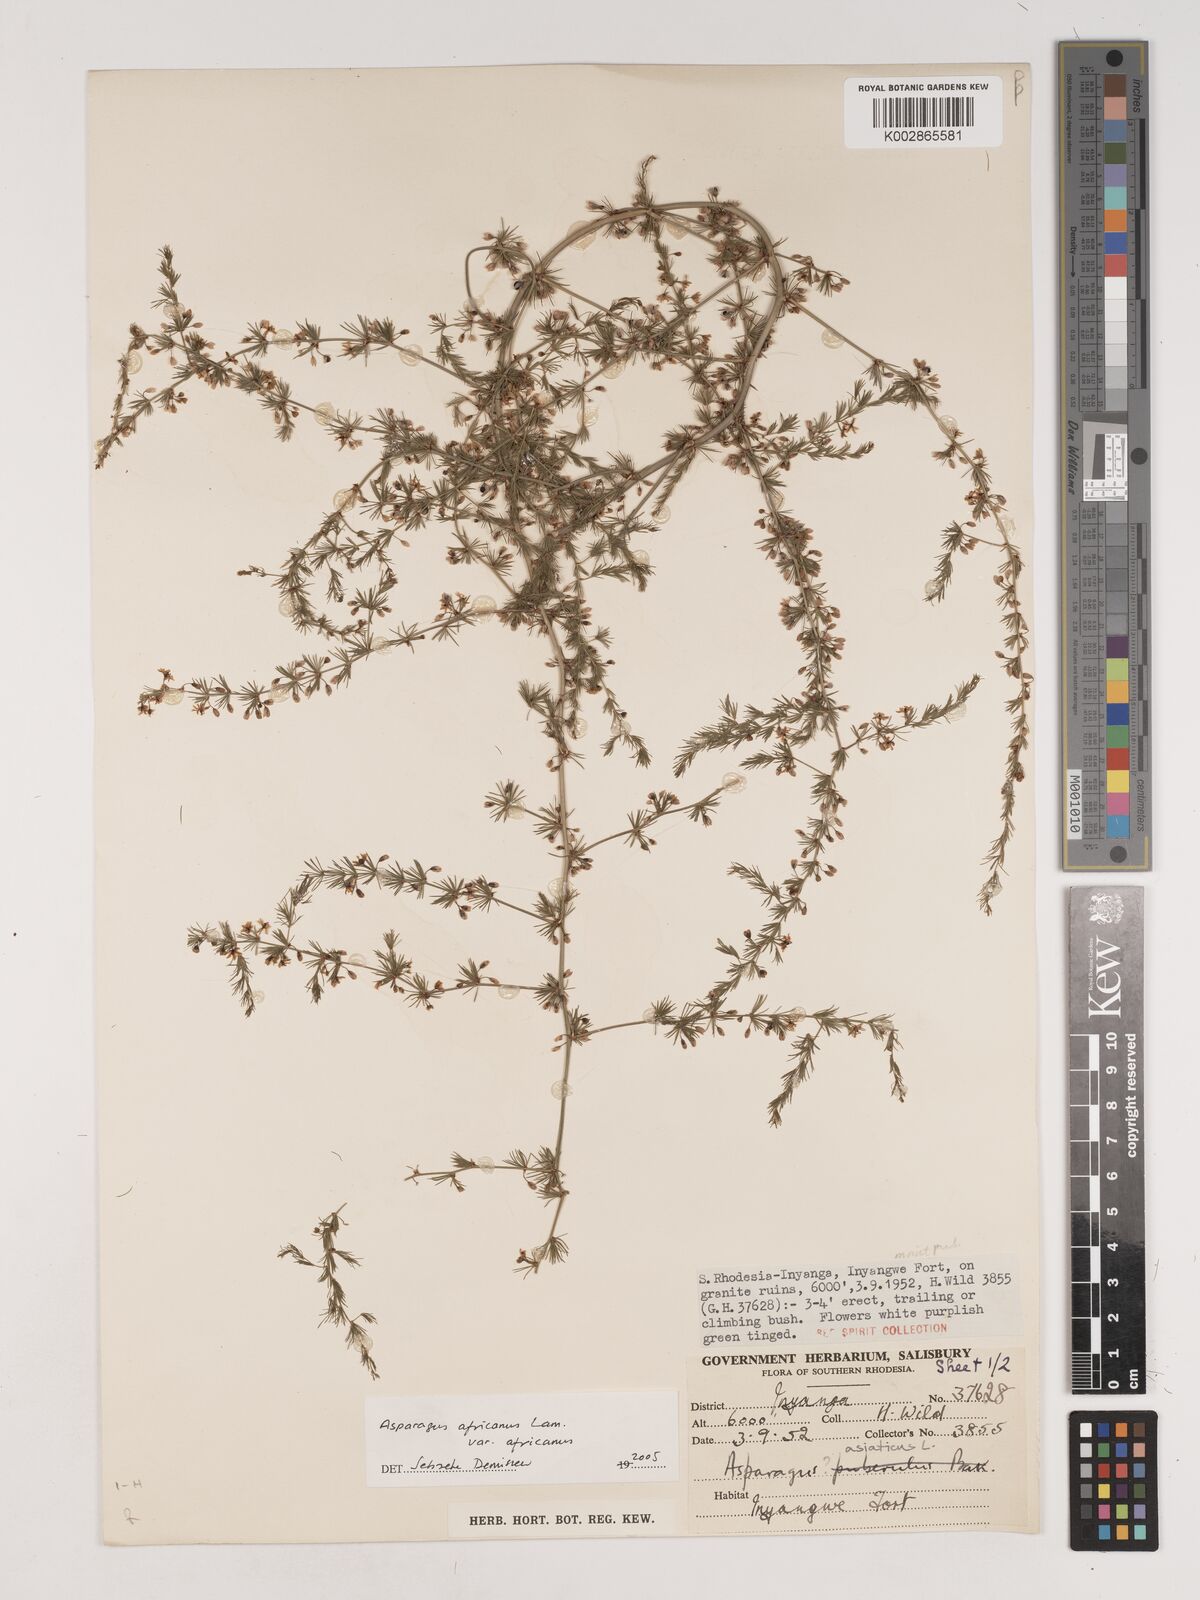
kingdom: Plantae
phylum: Tracheophyta
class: Liliopsida
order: Asparagales
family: Asparagaceae
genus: Asparagus
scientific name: Asparagus africanus
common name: Asparagus-fern
